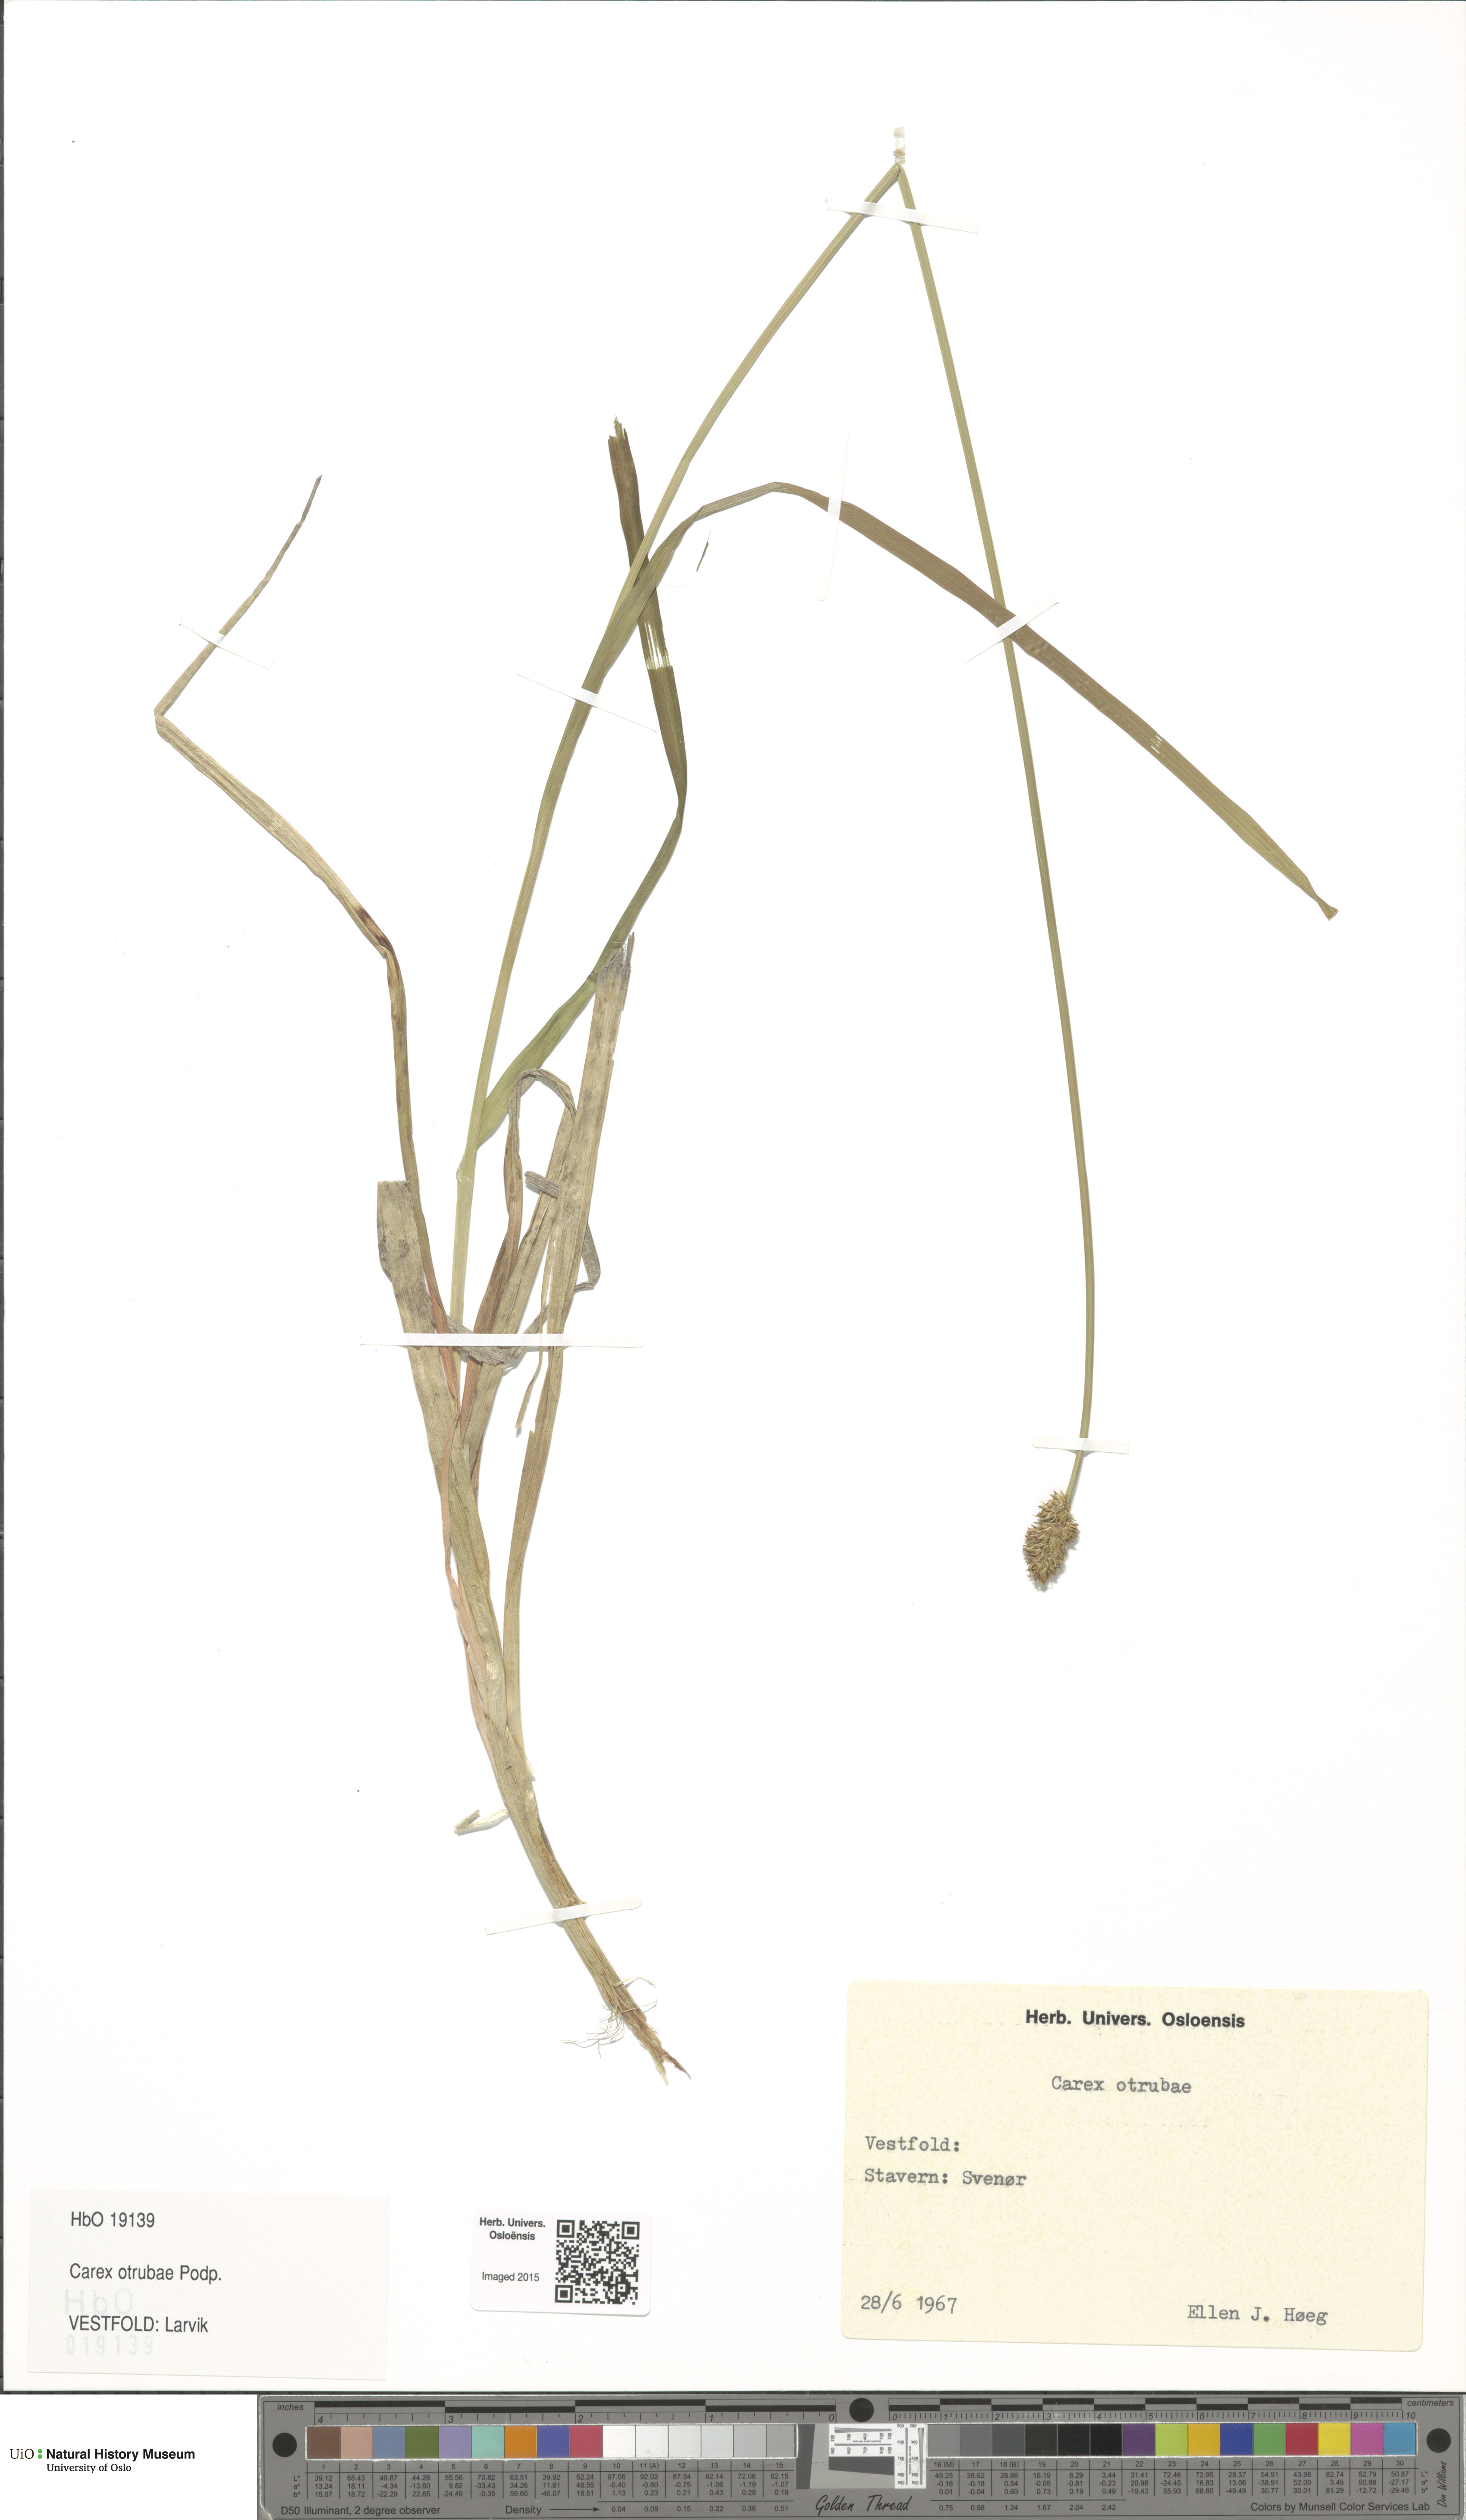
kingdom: Plantae
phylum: Tracheophyta
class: Liliopsida
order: Poales
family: Cyperaceae
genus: Carex
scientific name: Carex otrubae
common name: False fox-sedge
